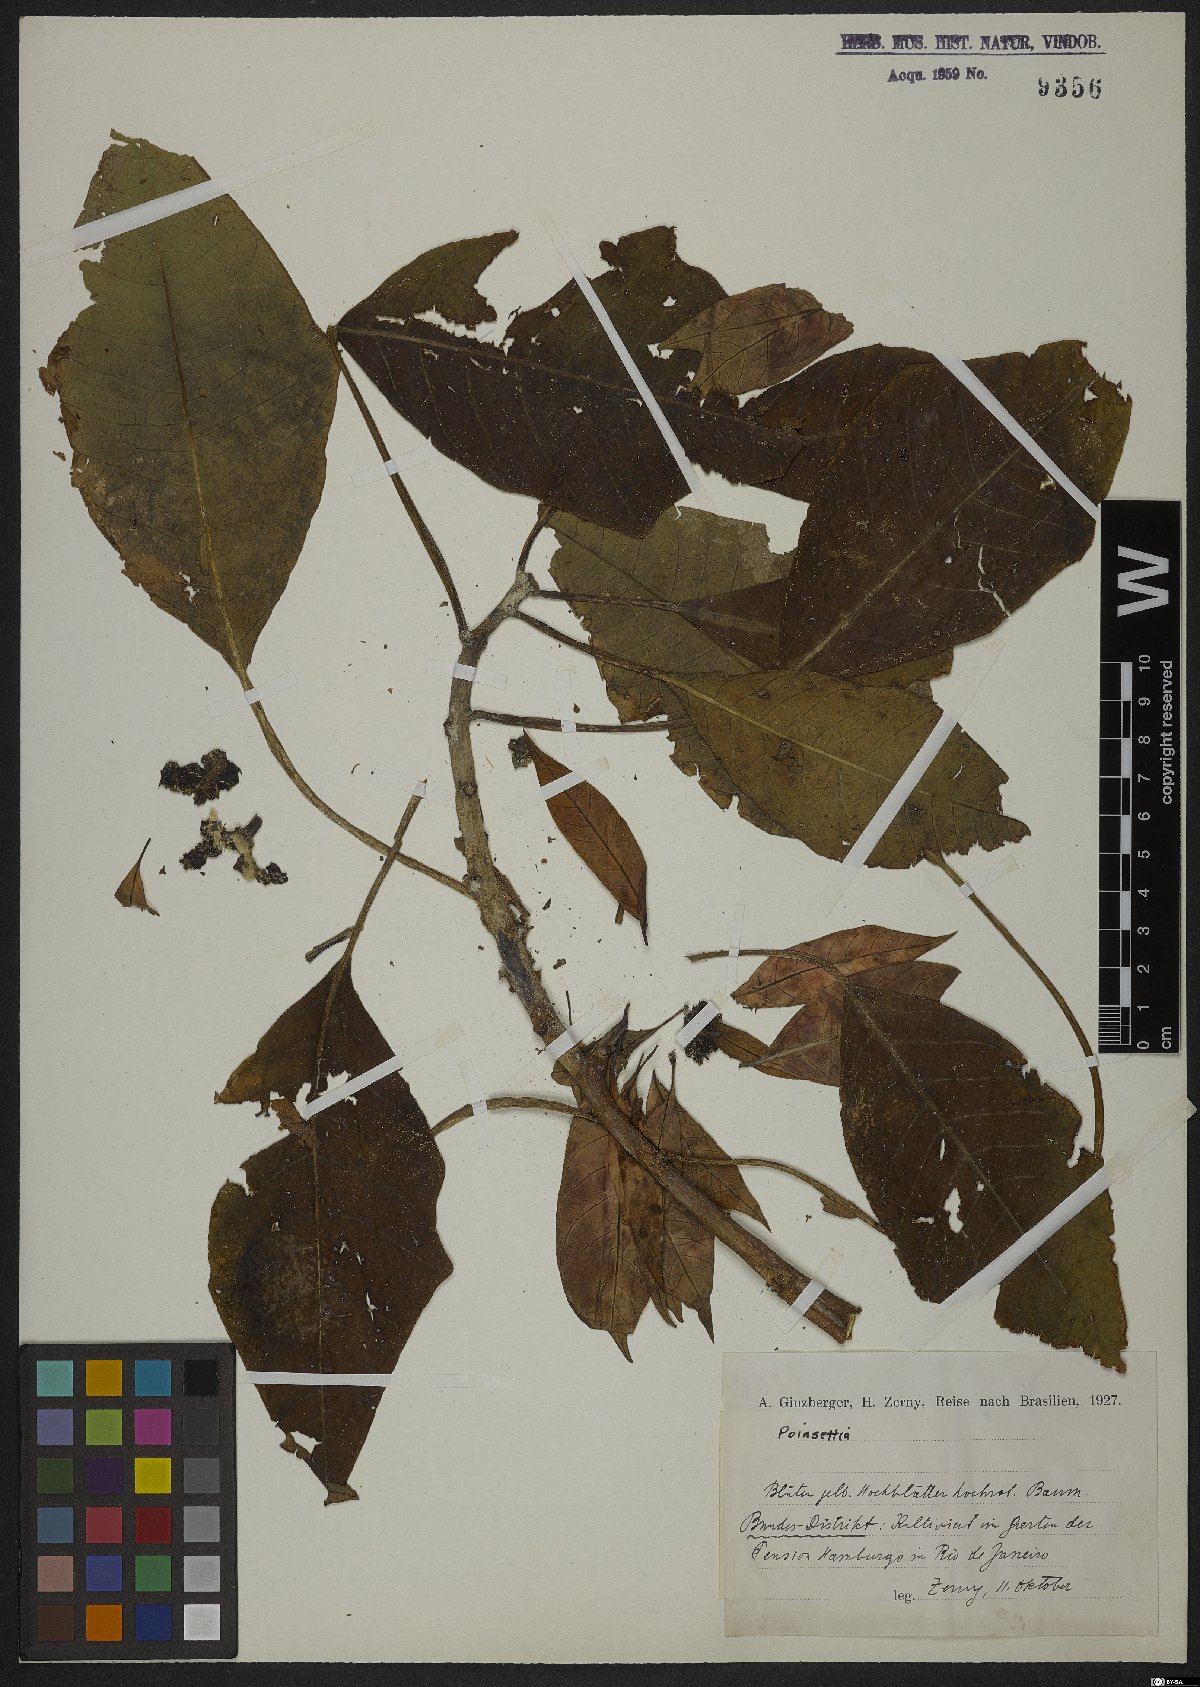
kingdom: Plantae
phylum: Tracheophyta
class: Magnoliopsida
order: Malpighiales
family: Euphorbiaceae
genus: Euphorbia
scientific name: Euphorbia
